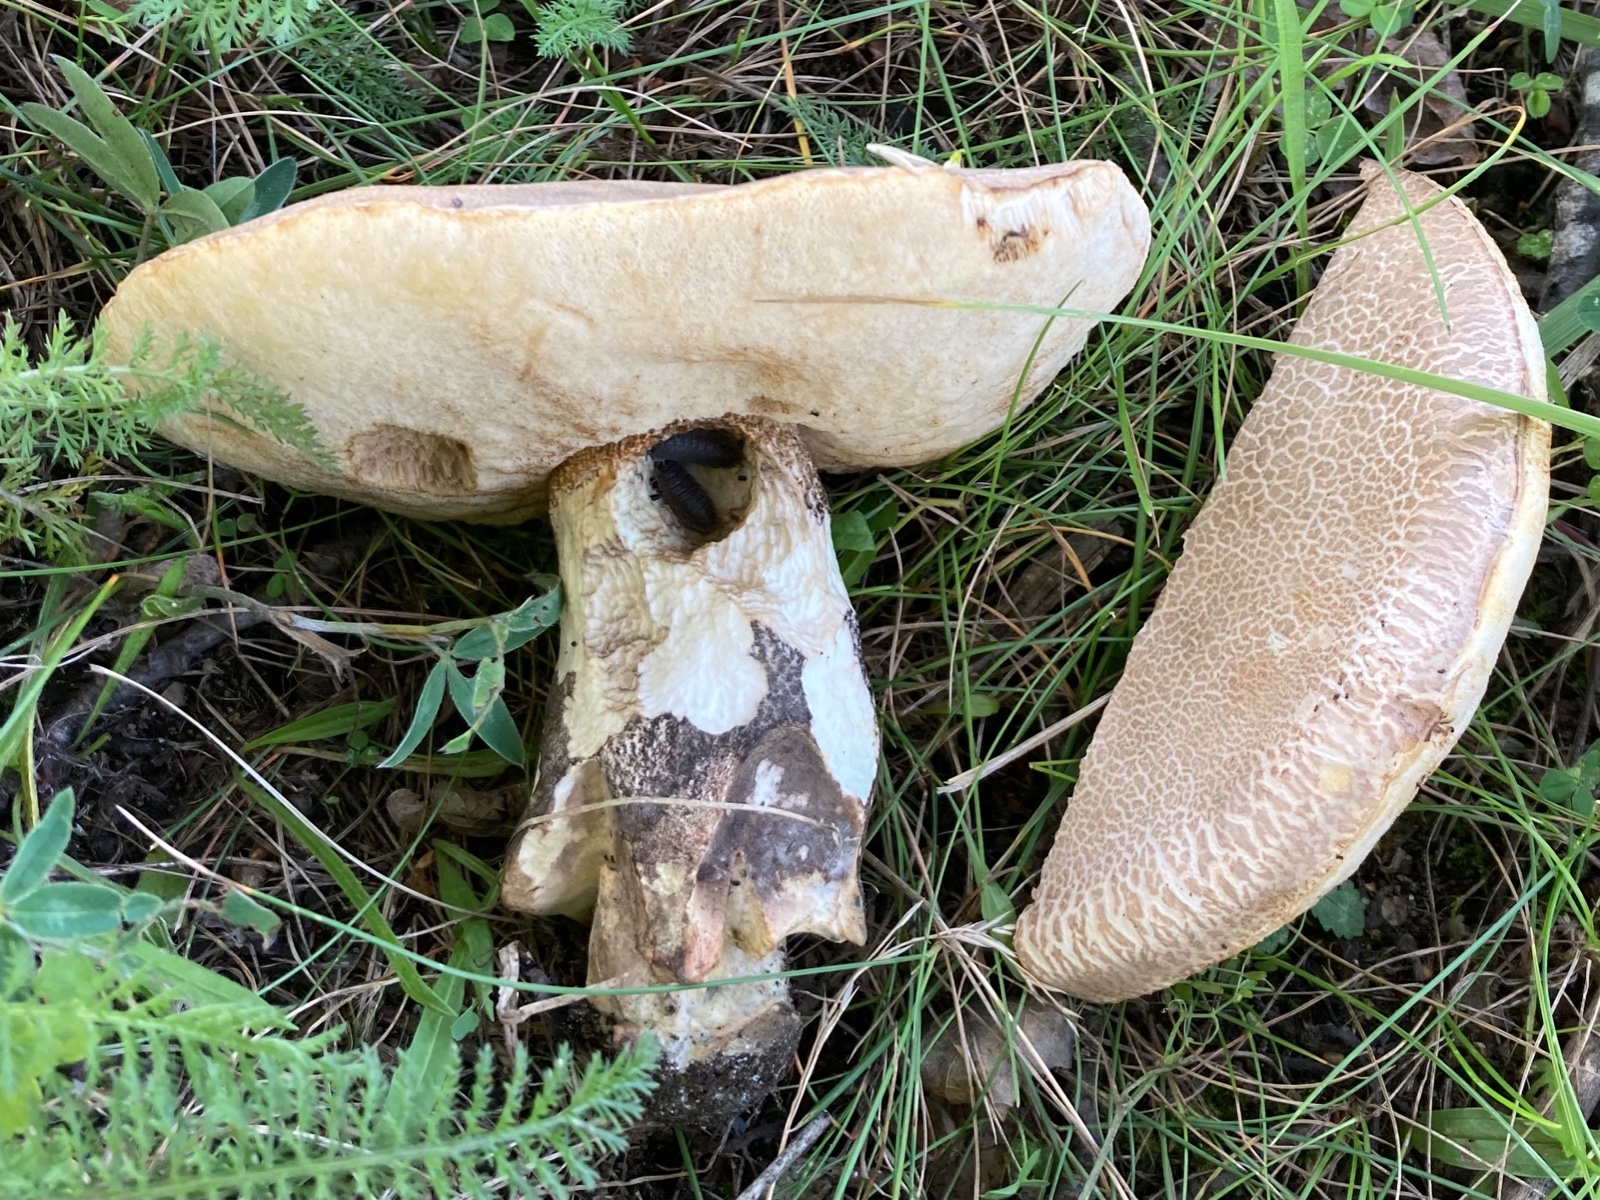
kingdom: Fungi
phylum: Basidiomycota
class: Agaricomycetes
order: Boletales
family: Boletaceae
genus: Leccinum
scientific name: Leccinum duriusculum
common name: poppel-skælrørhat
